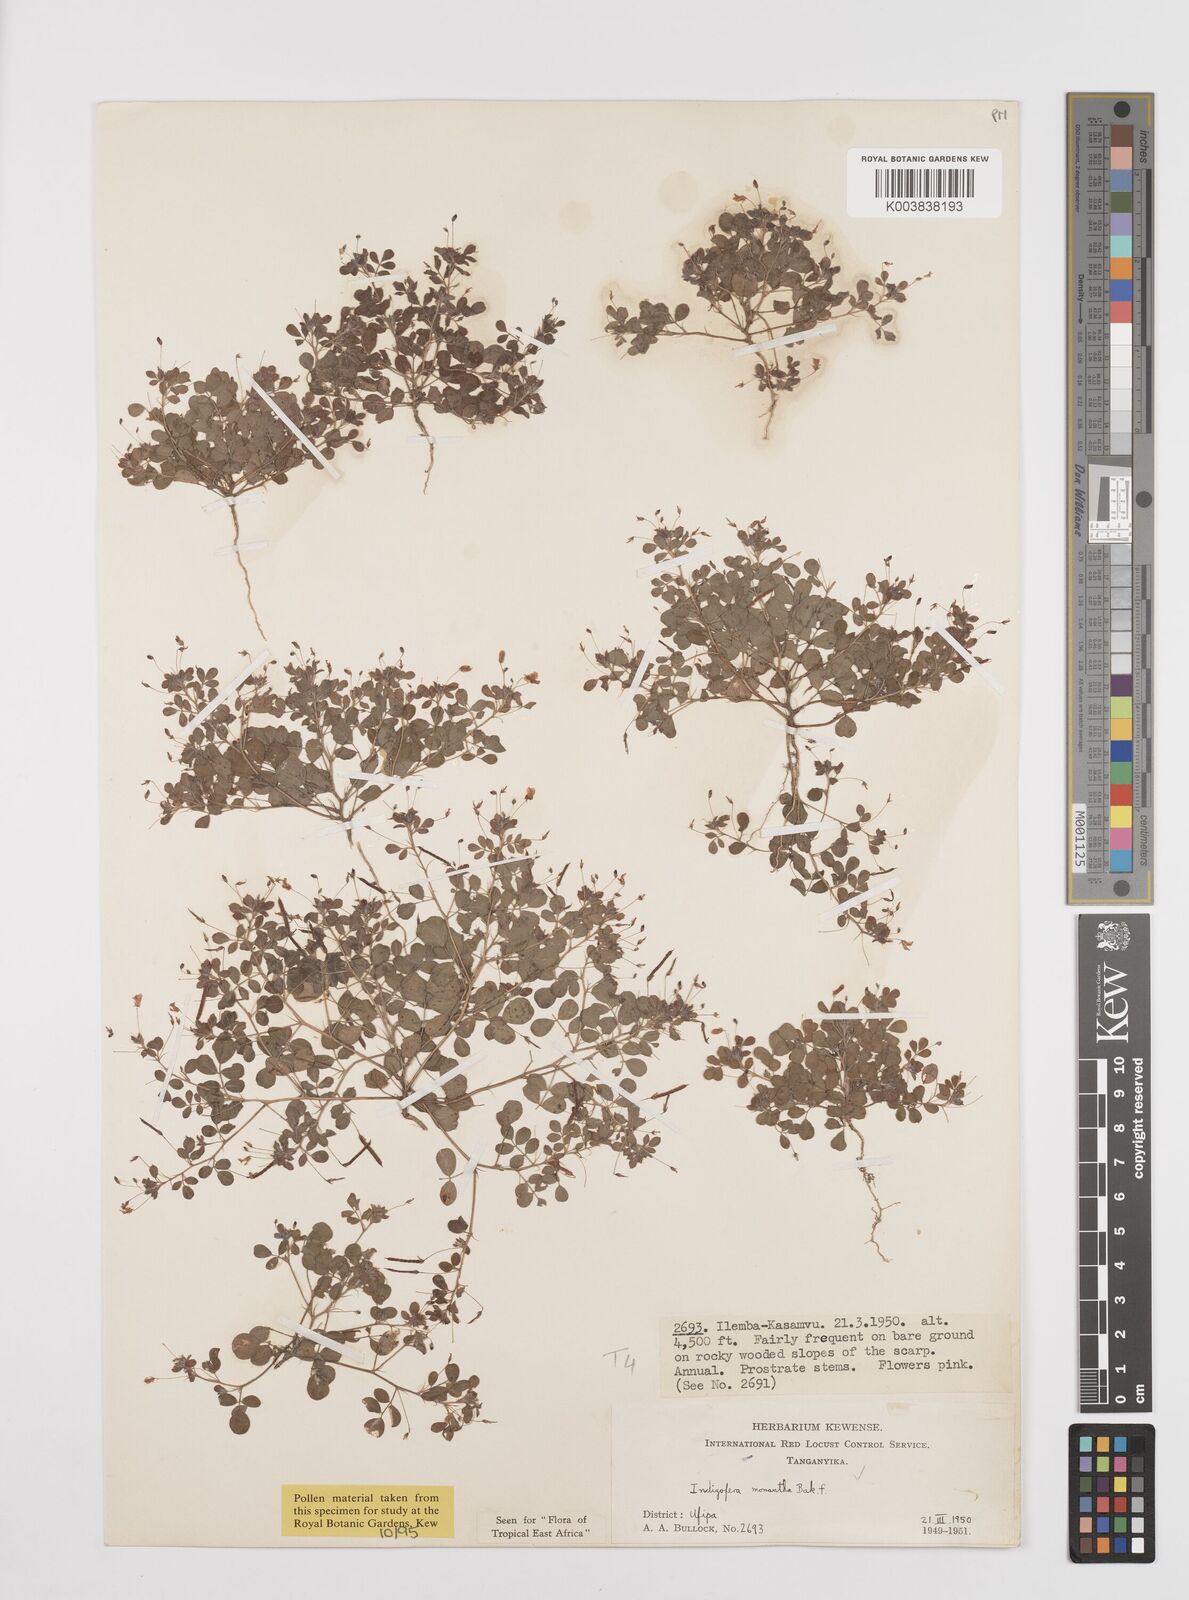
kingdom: Plantae
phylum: Tracheophyta
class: Magnoliopsida
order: Fabales
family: Fabaceae
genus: Indigofera
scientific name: Indigofera monantha
